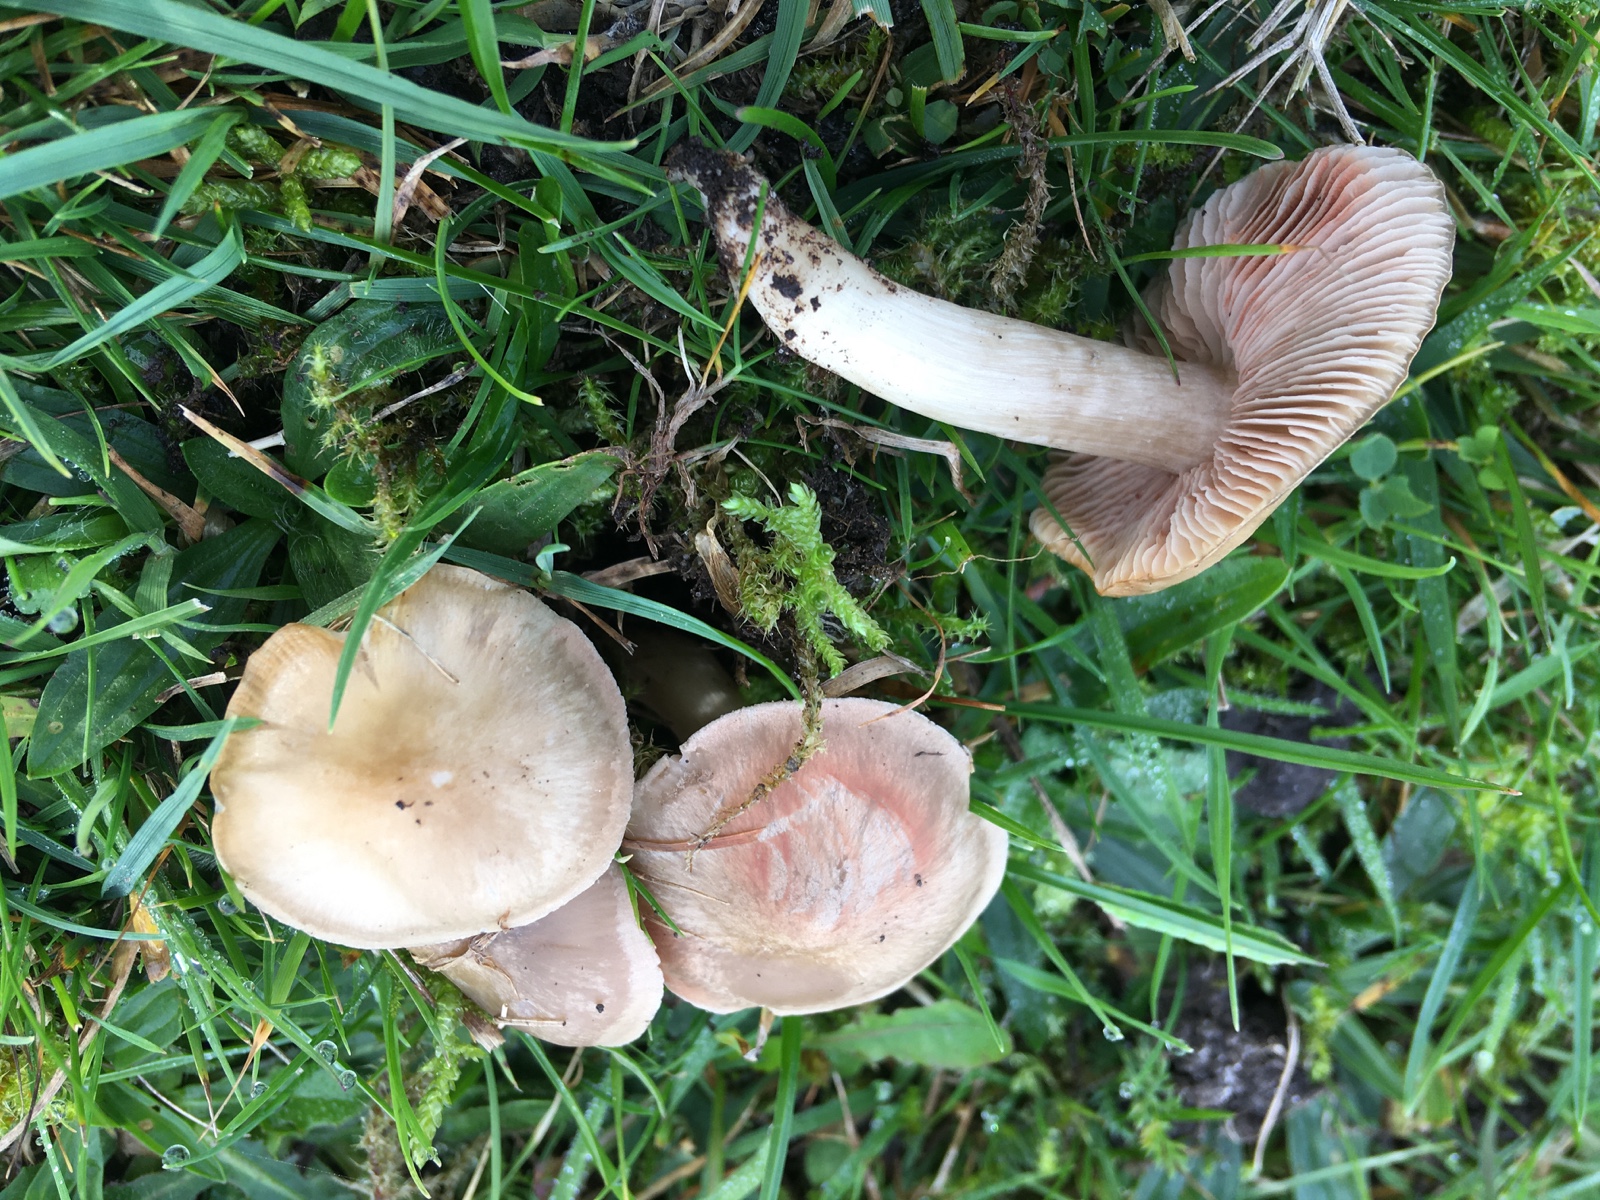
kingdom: Fungi
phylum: Basidiomycota
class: Agaricomycetes
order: Agaricales
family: Entolomataceae
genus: Entoloma
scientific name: Entoloma prunuloides
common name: mel-rødblad
